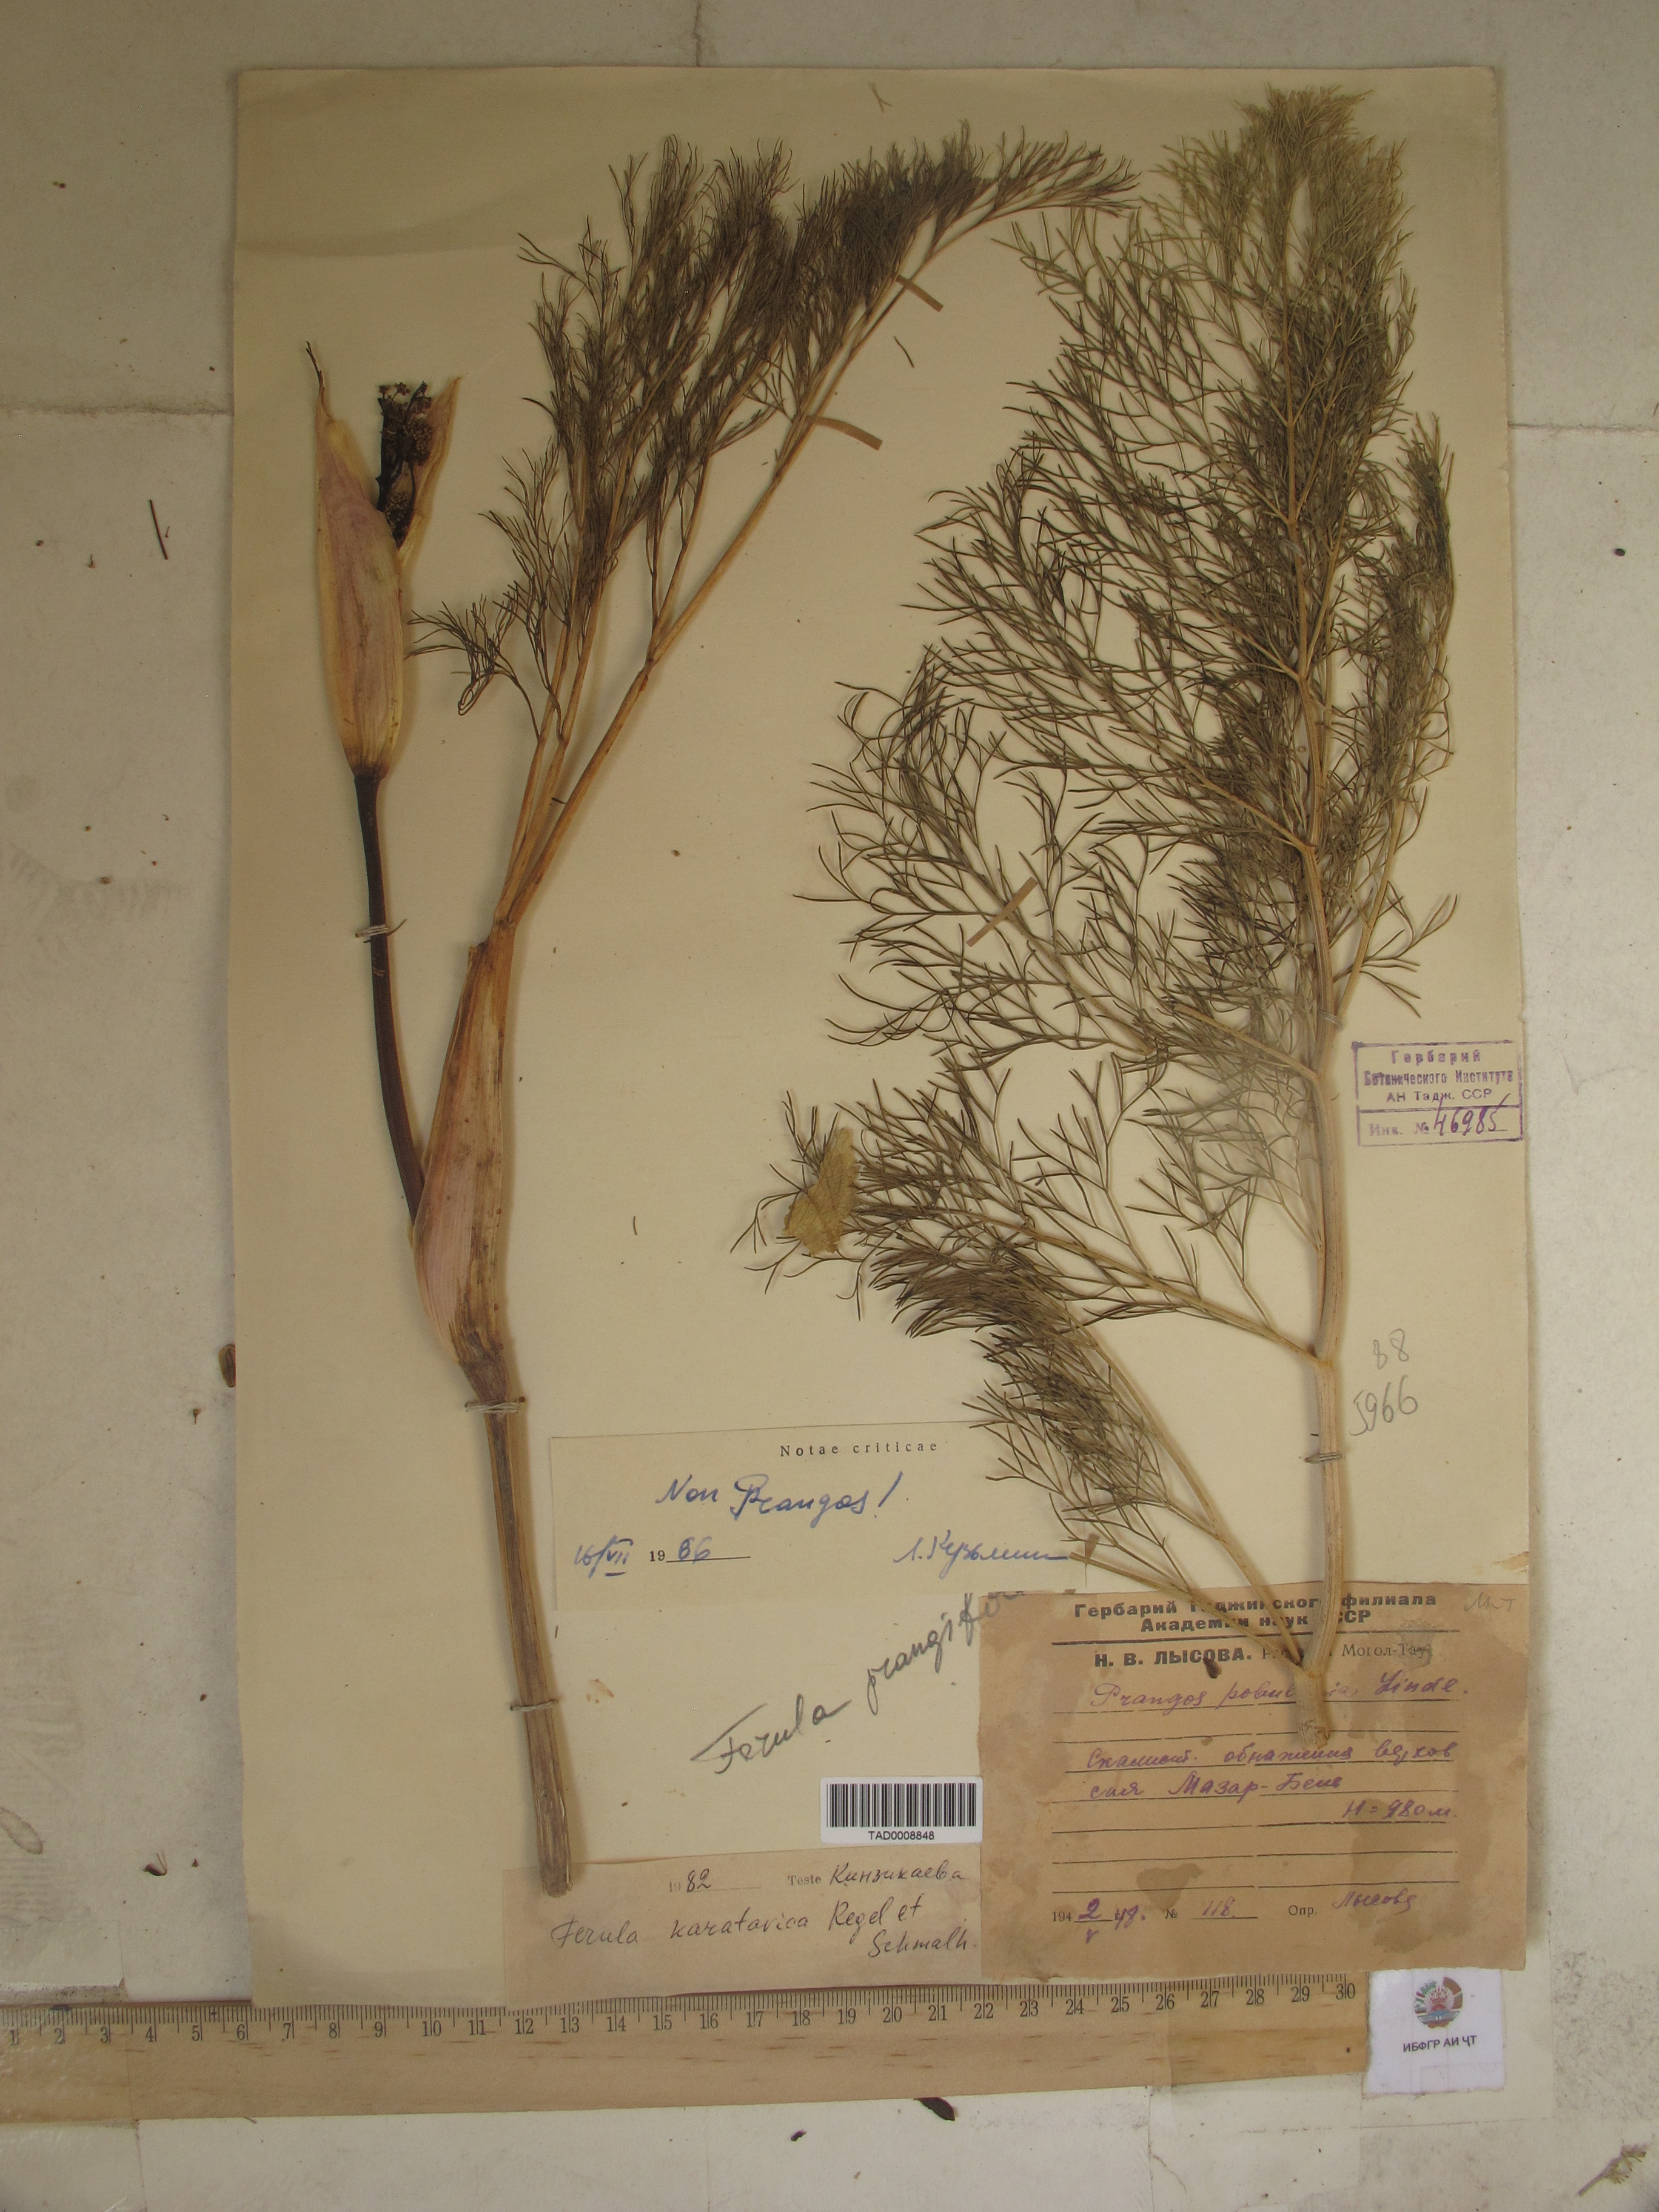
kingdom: Plantae
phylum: Tracheophyta
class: Magnoliopsida
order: Apiales
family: Apiaceae
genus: Ferula
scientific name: Ferula prangifolia
